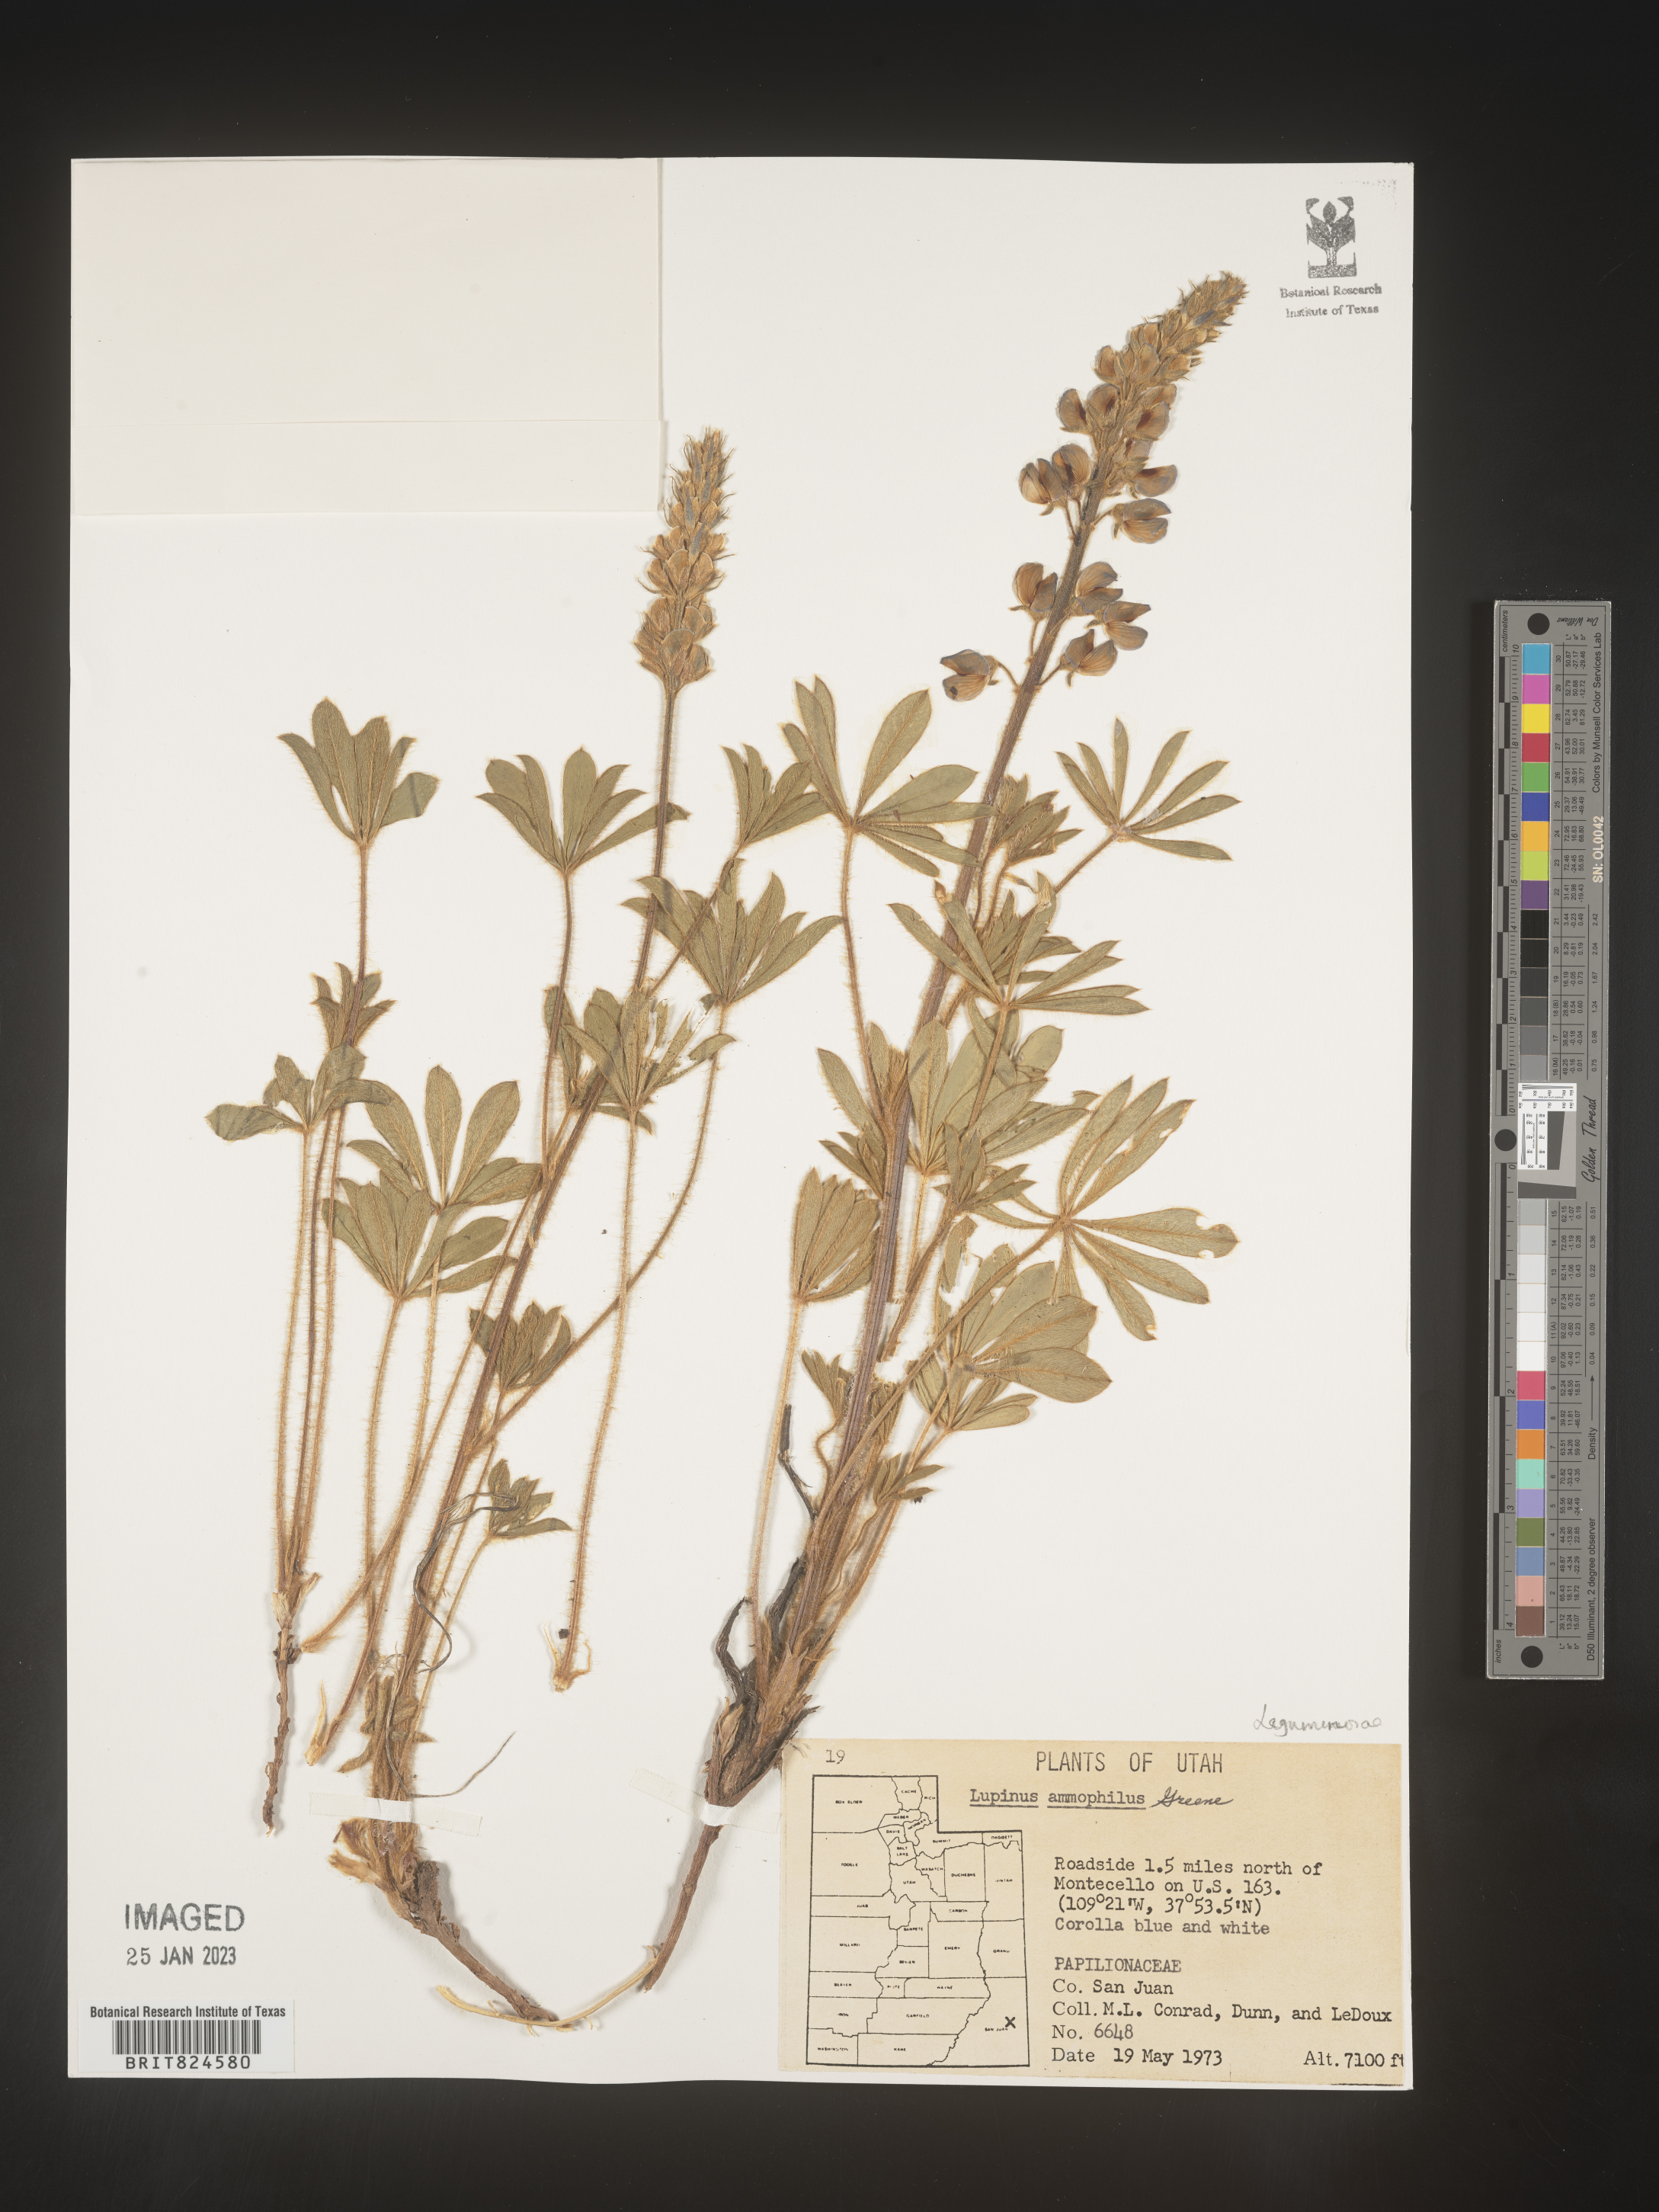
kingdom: Plantae
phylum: Tracheophyta
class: Magnoliopsida
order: Fabales
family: Fabaceae
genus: Lupinus
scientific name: Lupinus
